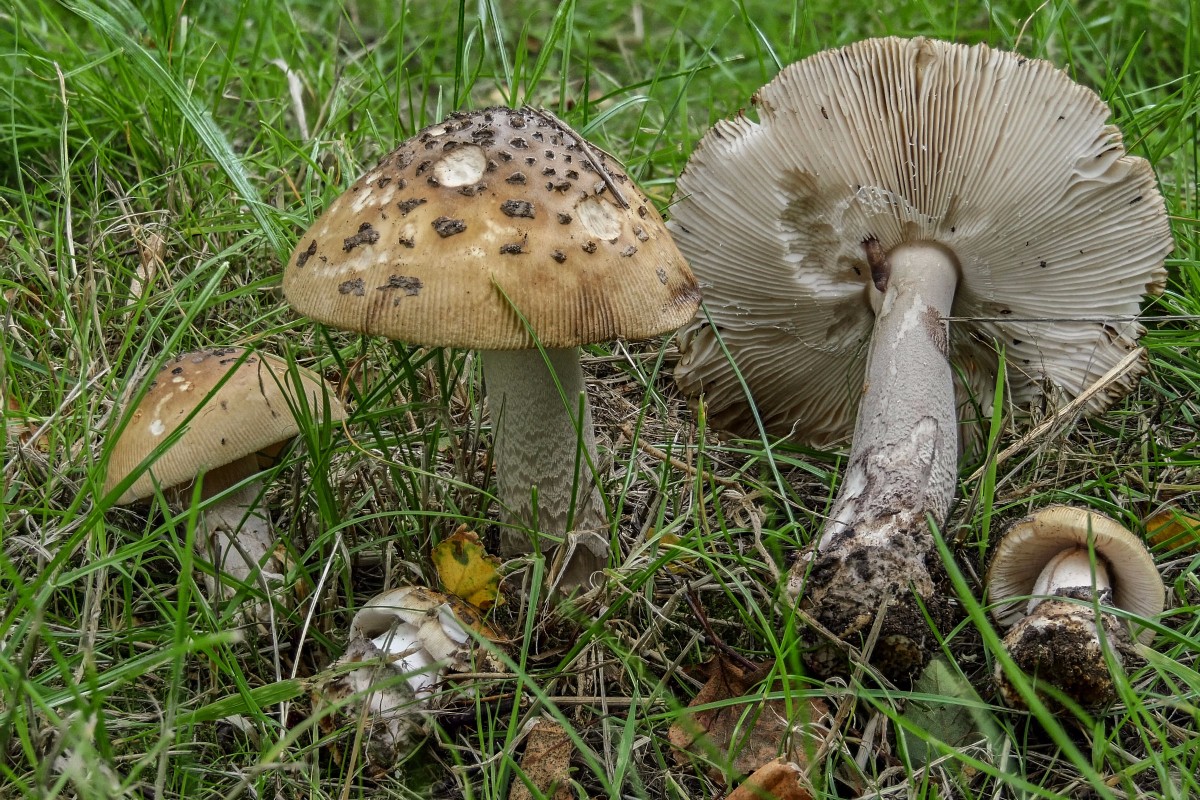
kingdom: Fungi
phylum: Basidiomycota
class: Agaricomycetes
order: Agaricales
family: Amanitaceae
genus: Amanita
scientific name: Amanita ceciliae
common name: stor kam-fluesvamp
